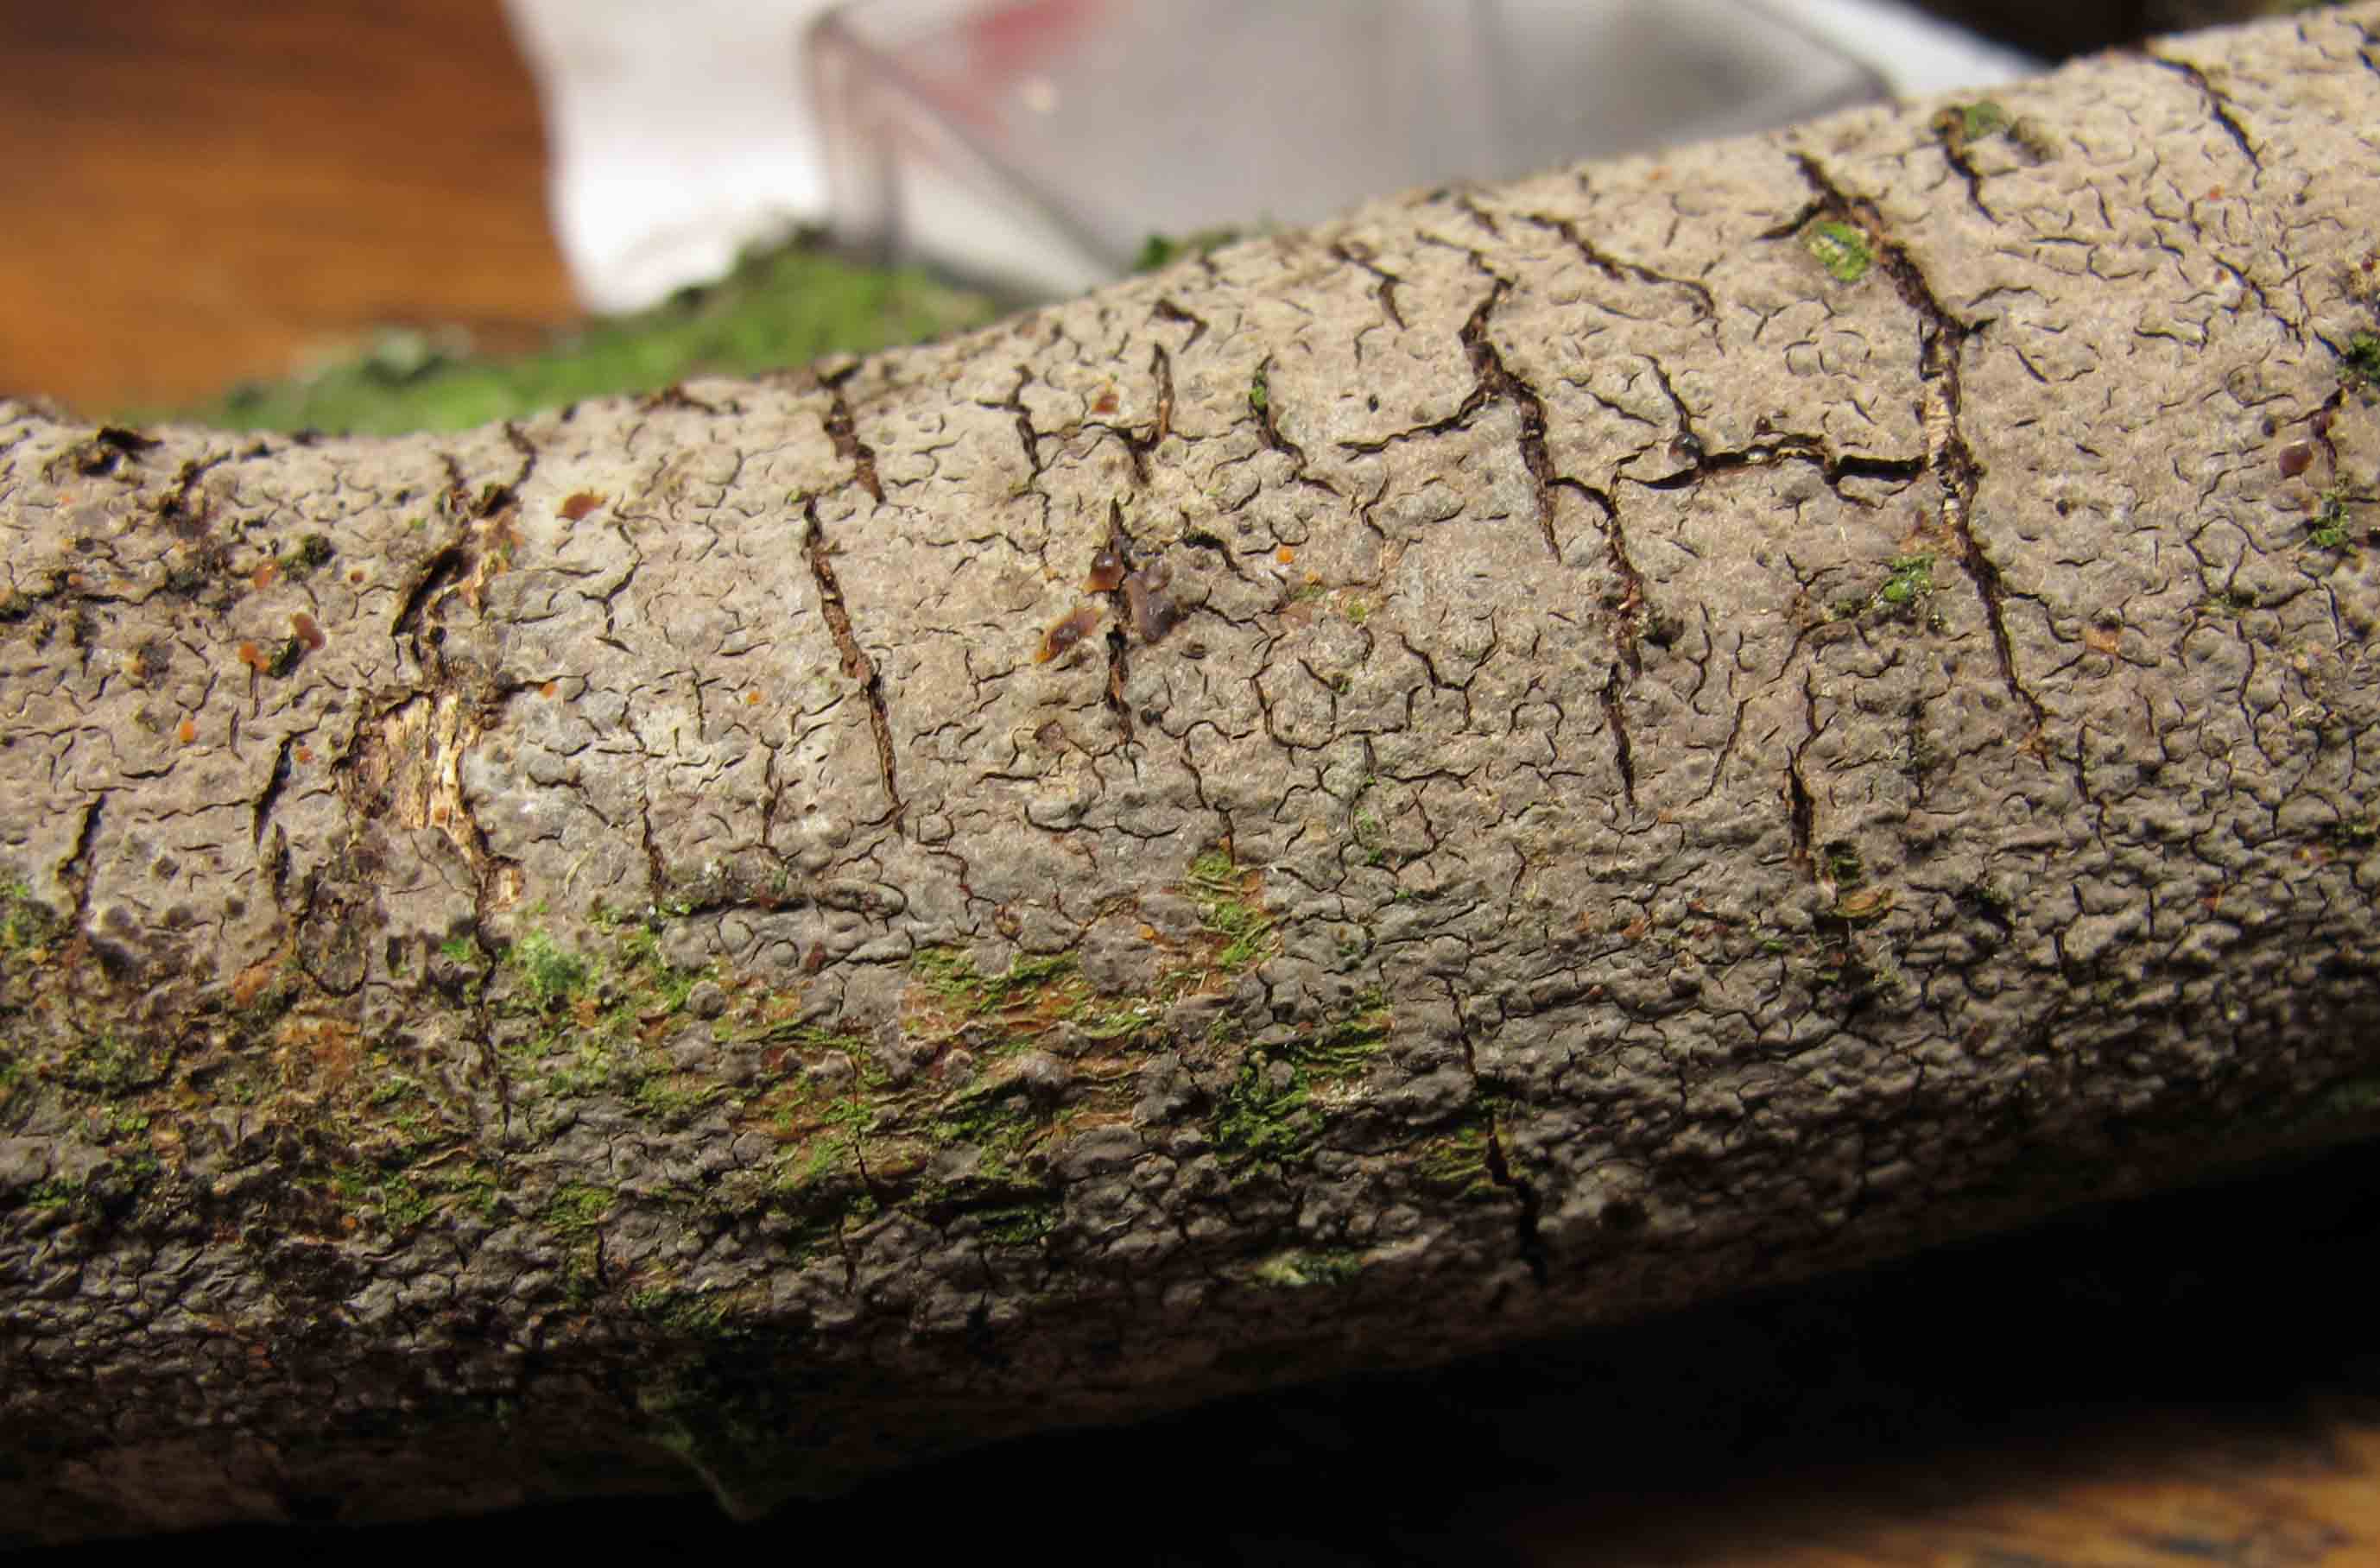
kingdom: Fungi
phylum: Basidiomycota
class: Agaricomycetes
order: Russulales
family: Peniophoraceae
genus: Peniophora
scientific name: Peniophora violaceolivida
